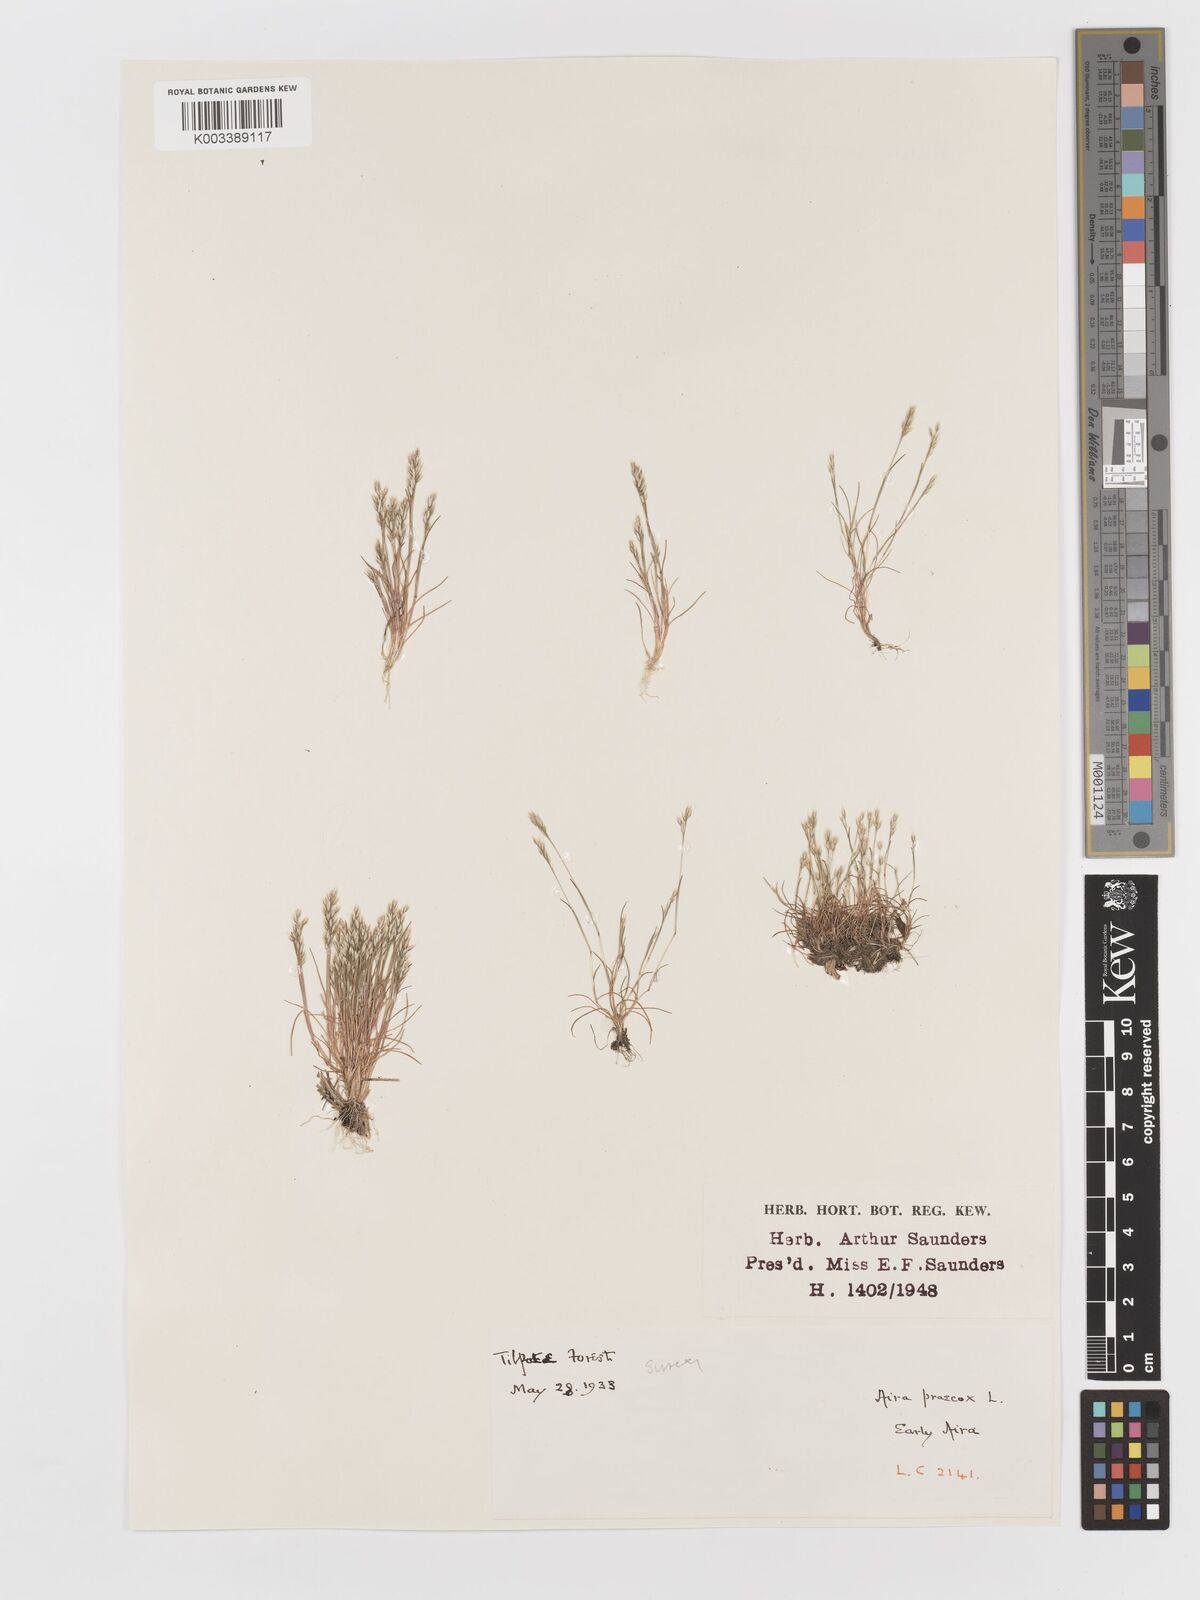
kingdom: Plantae
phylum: Tracheophyta
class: Liliopsida
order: Poales
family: Poaceae
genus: Aira
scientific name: Aira praecox
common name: Early hair-grass
